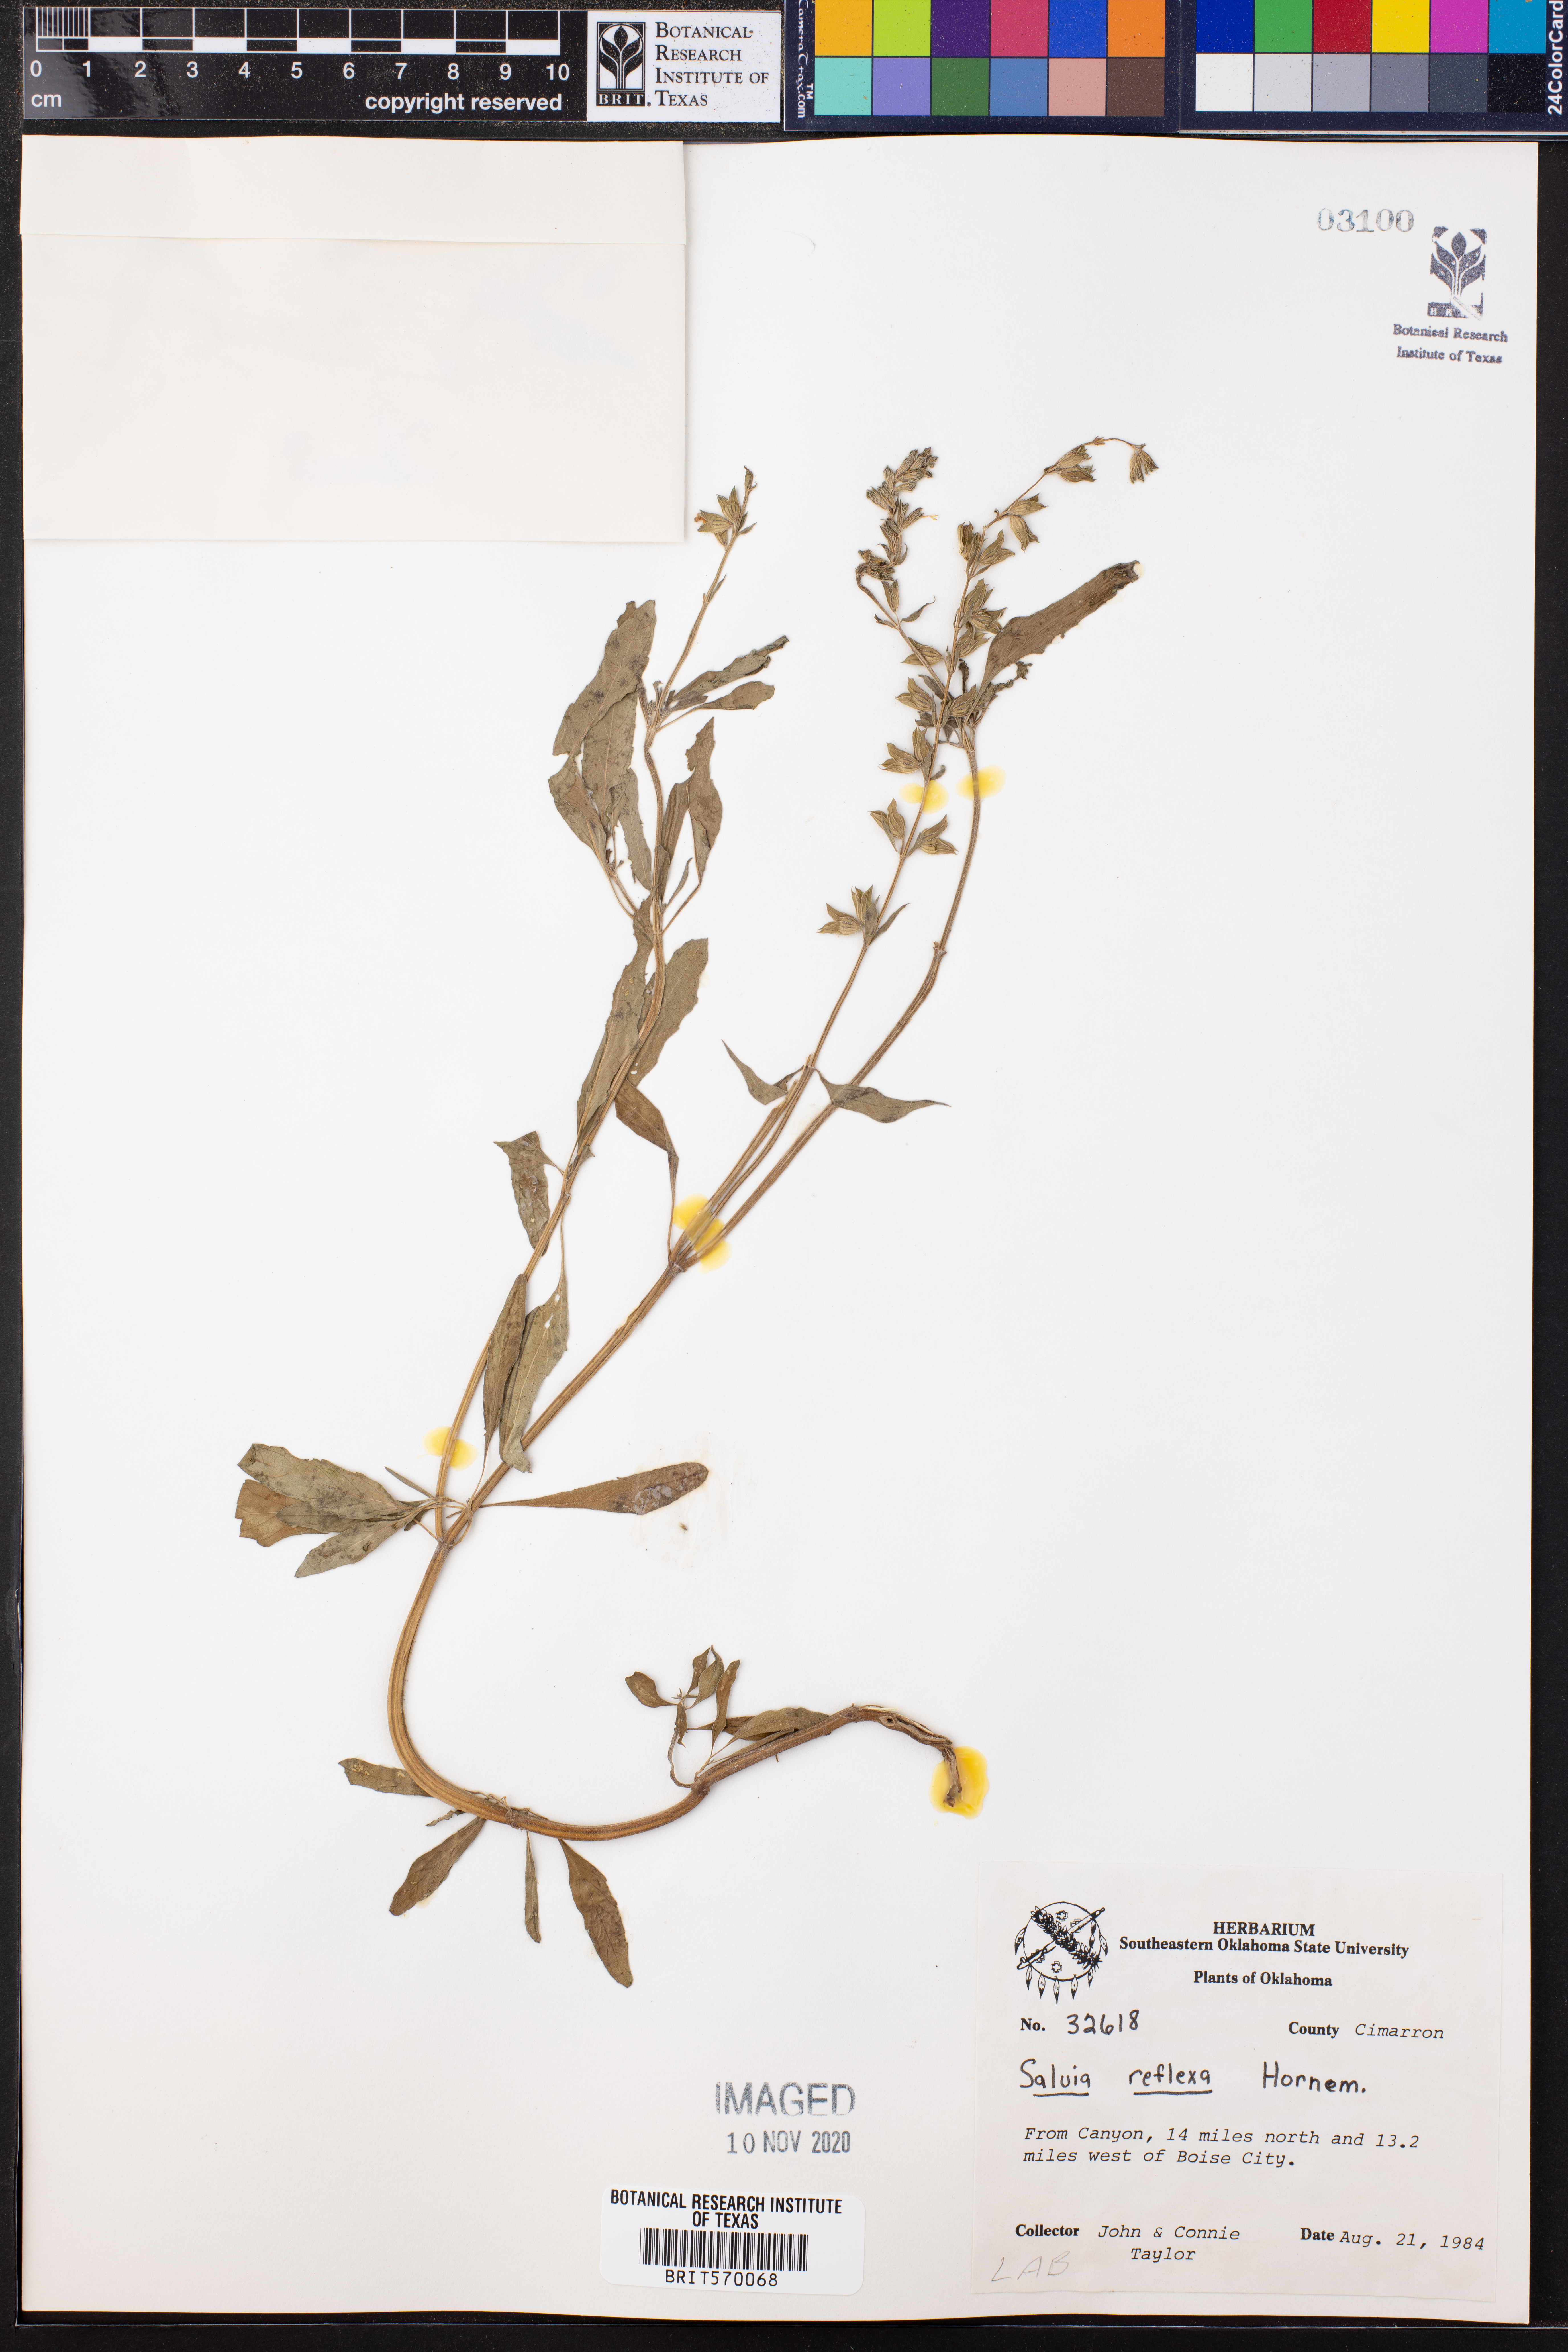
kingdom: Plantae
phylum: Tracheophyta
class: Magnoliopsida
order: Lamiales
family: Lamiaceae
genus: Salvia
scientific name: Salvia reflexa
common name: Mintweed
